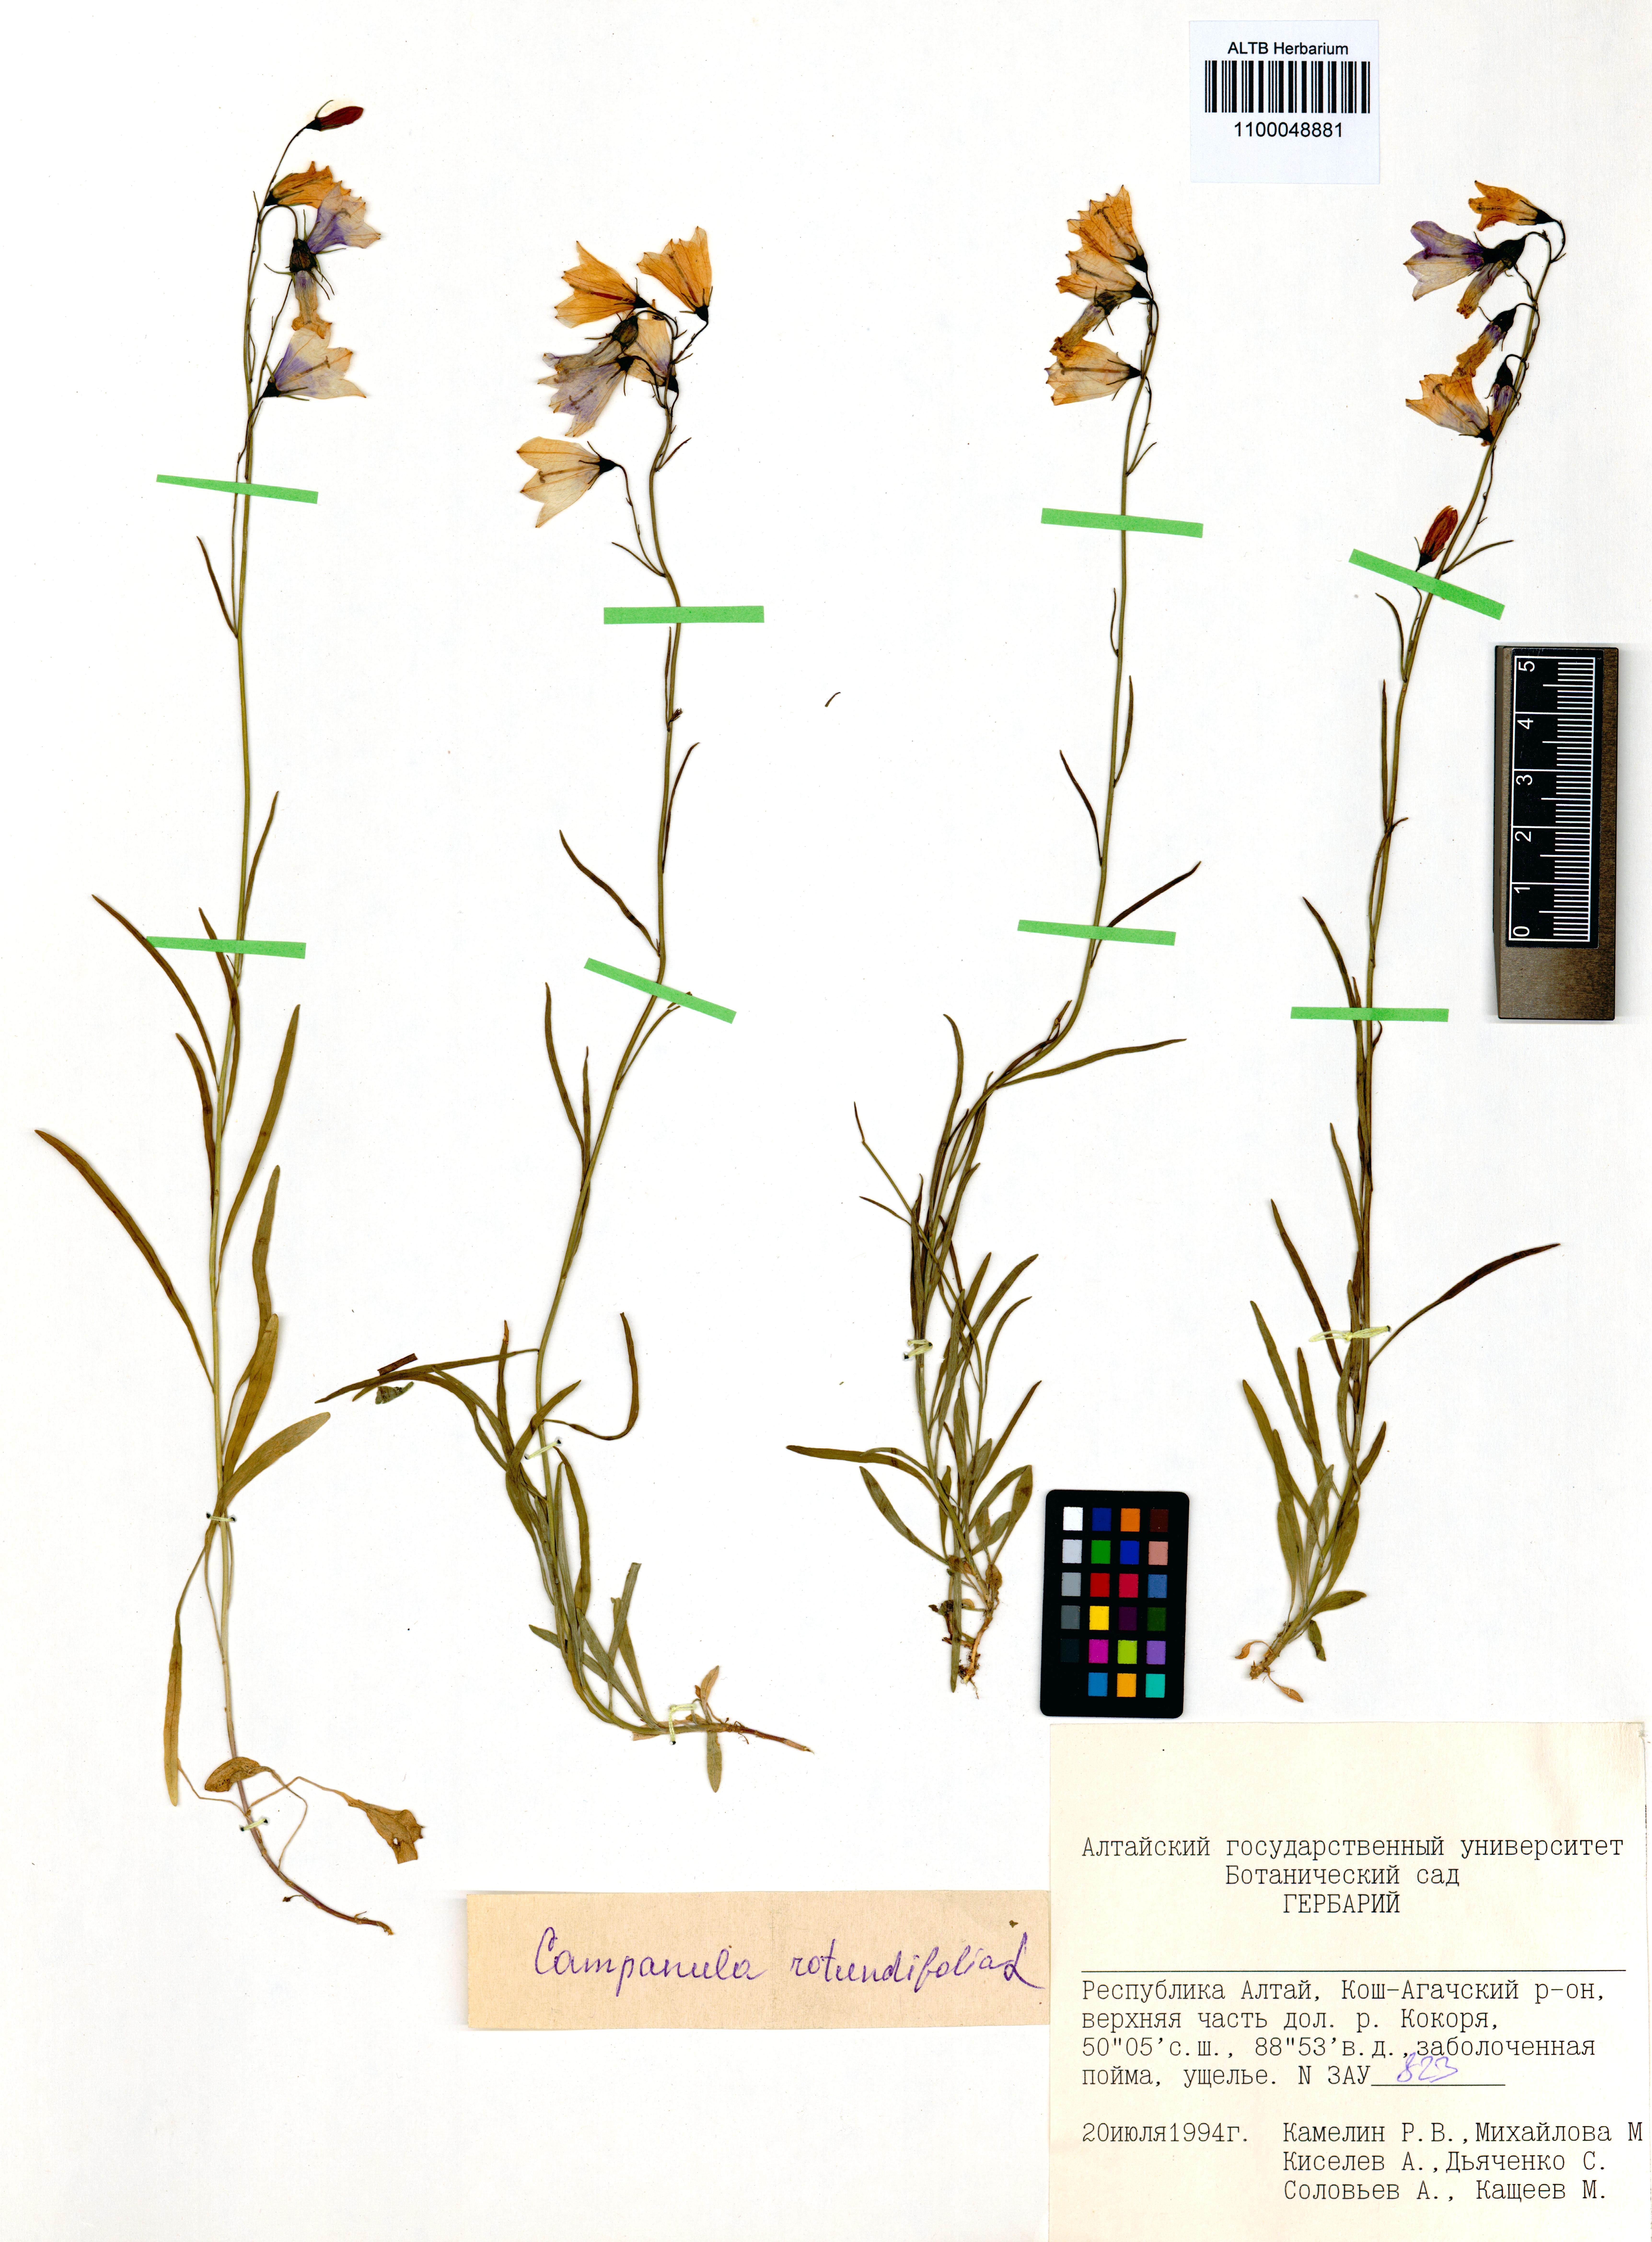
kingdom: Plantae
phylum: Tracheophyta
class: Magnoliopsida
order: Asterales
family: Campanulaceae
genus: Campanula
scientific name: Campanula rotundifolia
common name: Harebell
